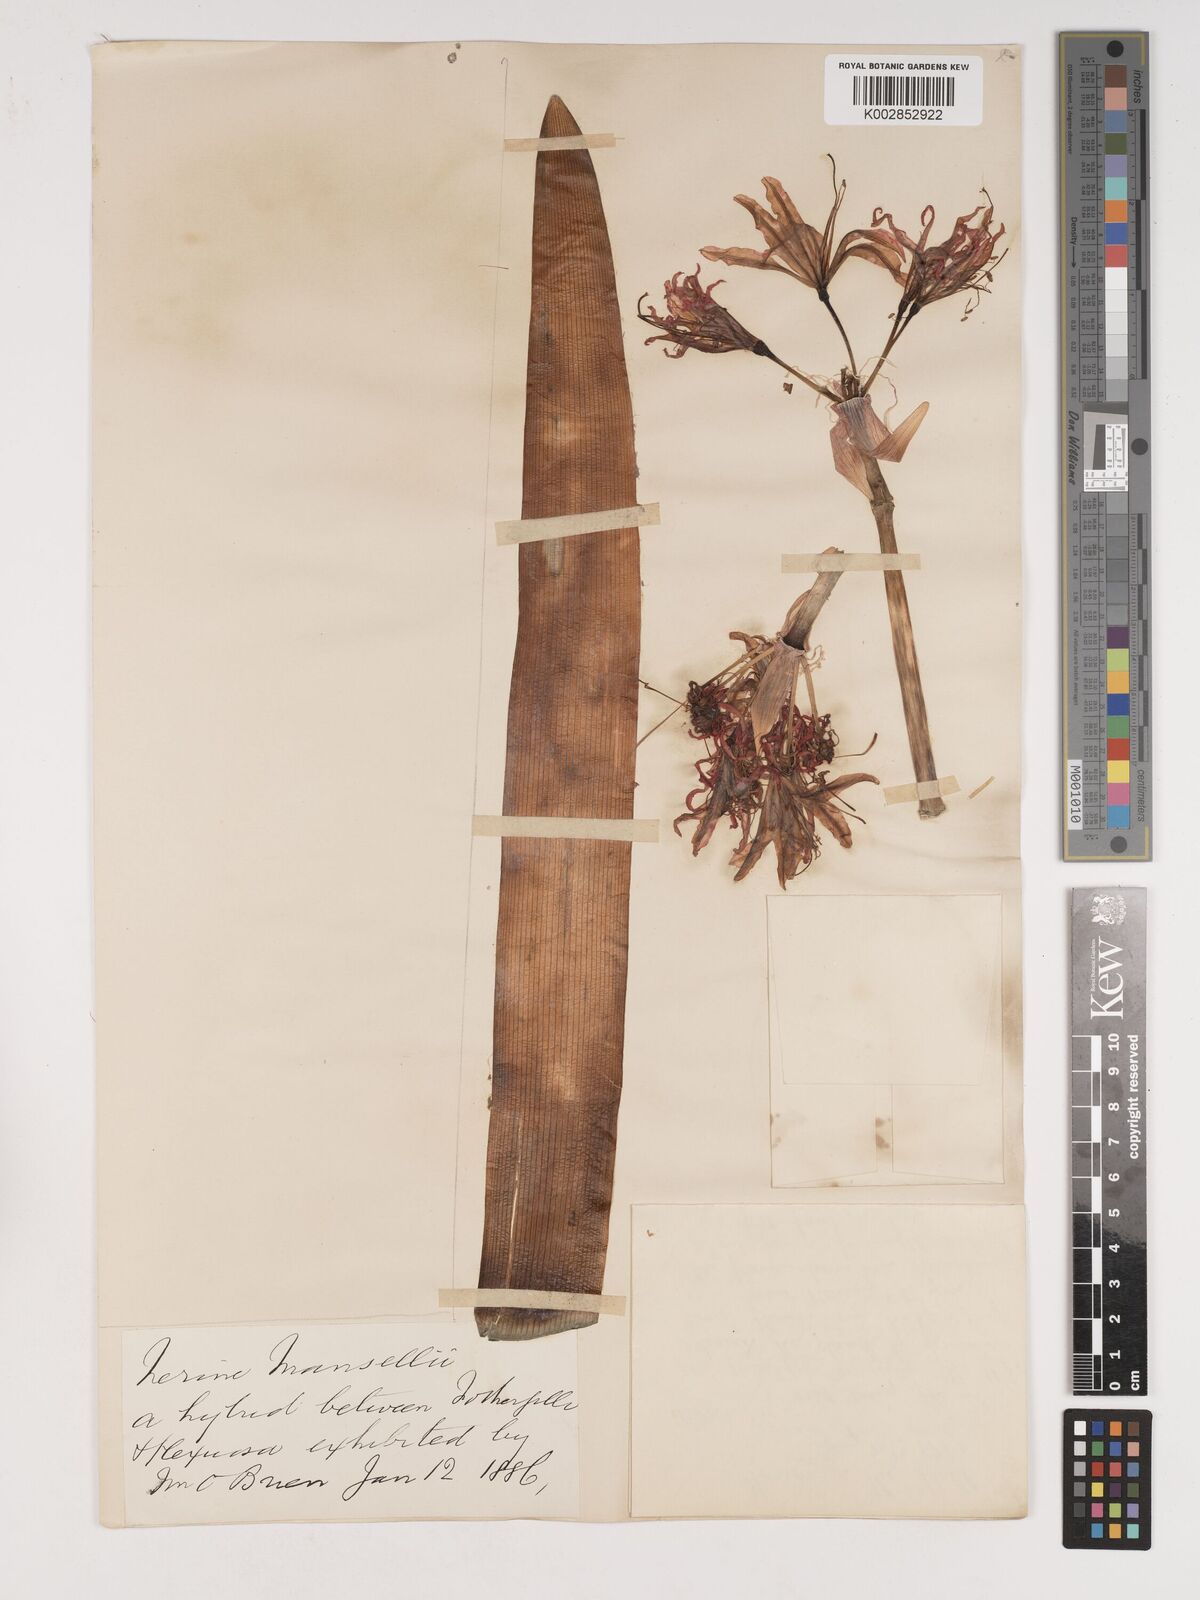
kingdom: Plantae
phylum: Tracheophyta
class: Liliopsida
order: Asparagales
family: Amaryllidaceae
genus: Nerine
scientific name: Nerine
